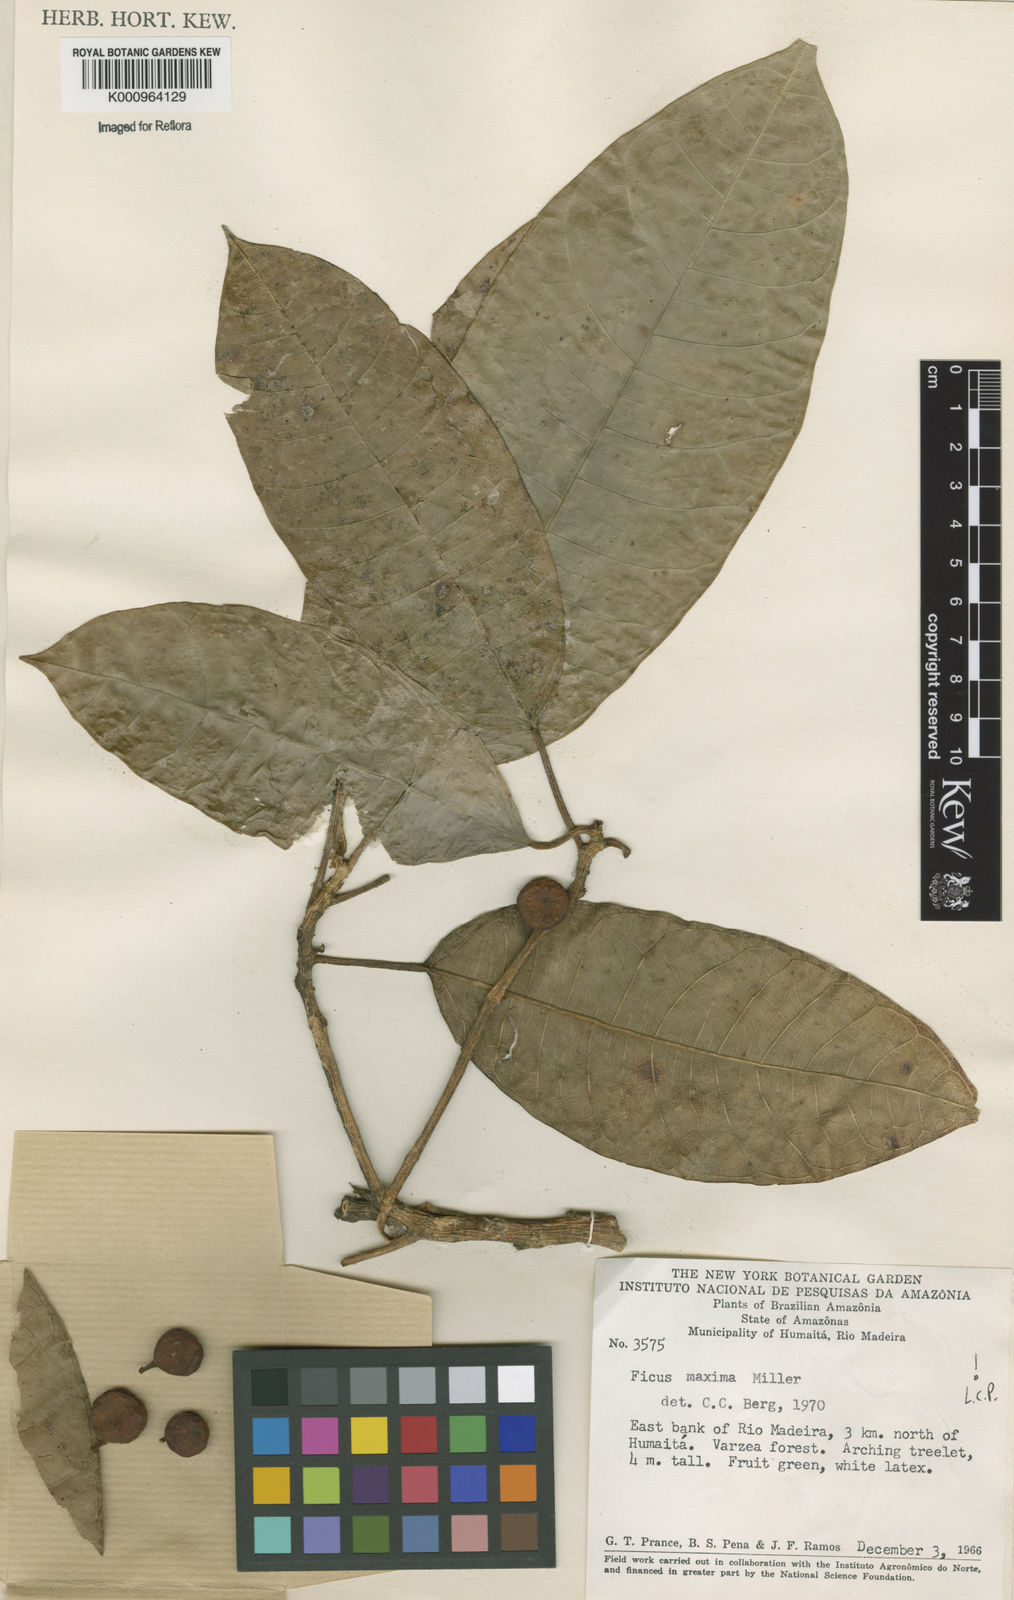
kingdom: Plantae
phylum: Tracheophyta
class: Magnoliopsida
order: Rosales
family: Moraceae
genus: Ficus
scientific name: Ficus maxima
